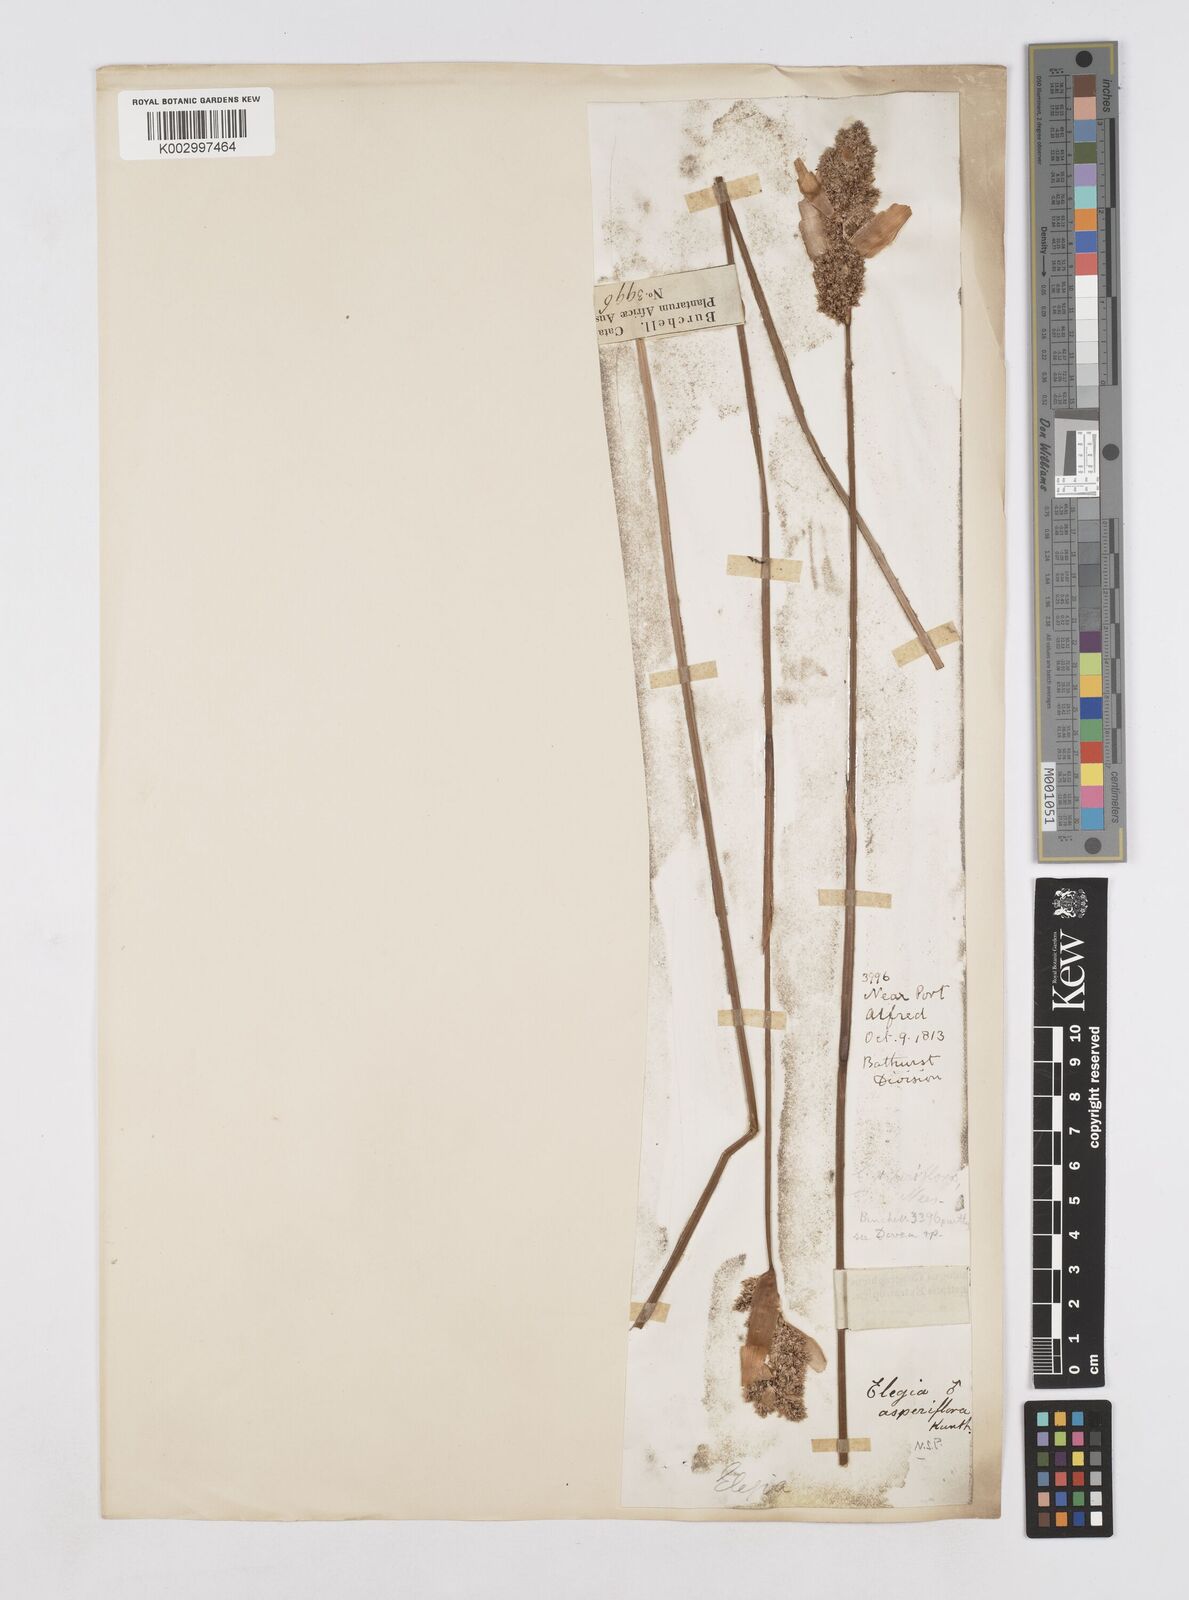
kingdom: Plantae
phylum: Tracheophyta
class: Liliopsida
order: Poales
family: Restionaceae
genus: Elegia
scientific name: Elegia asperiflora
